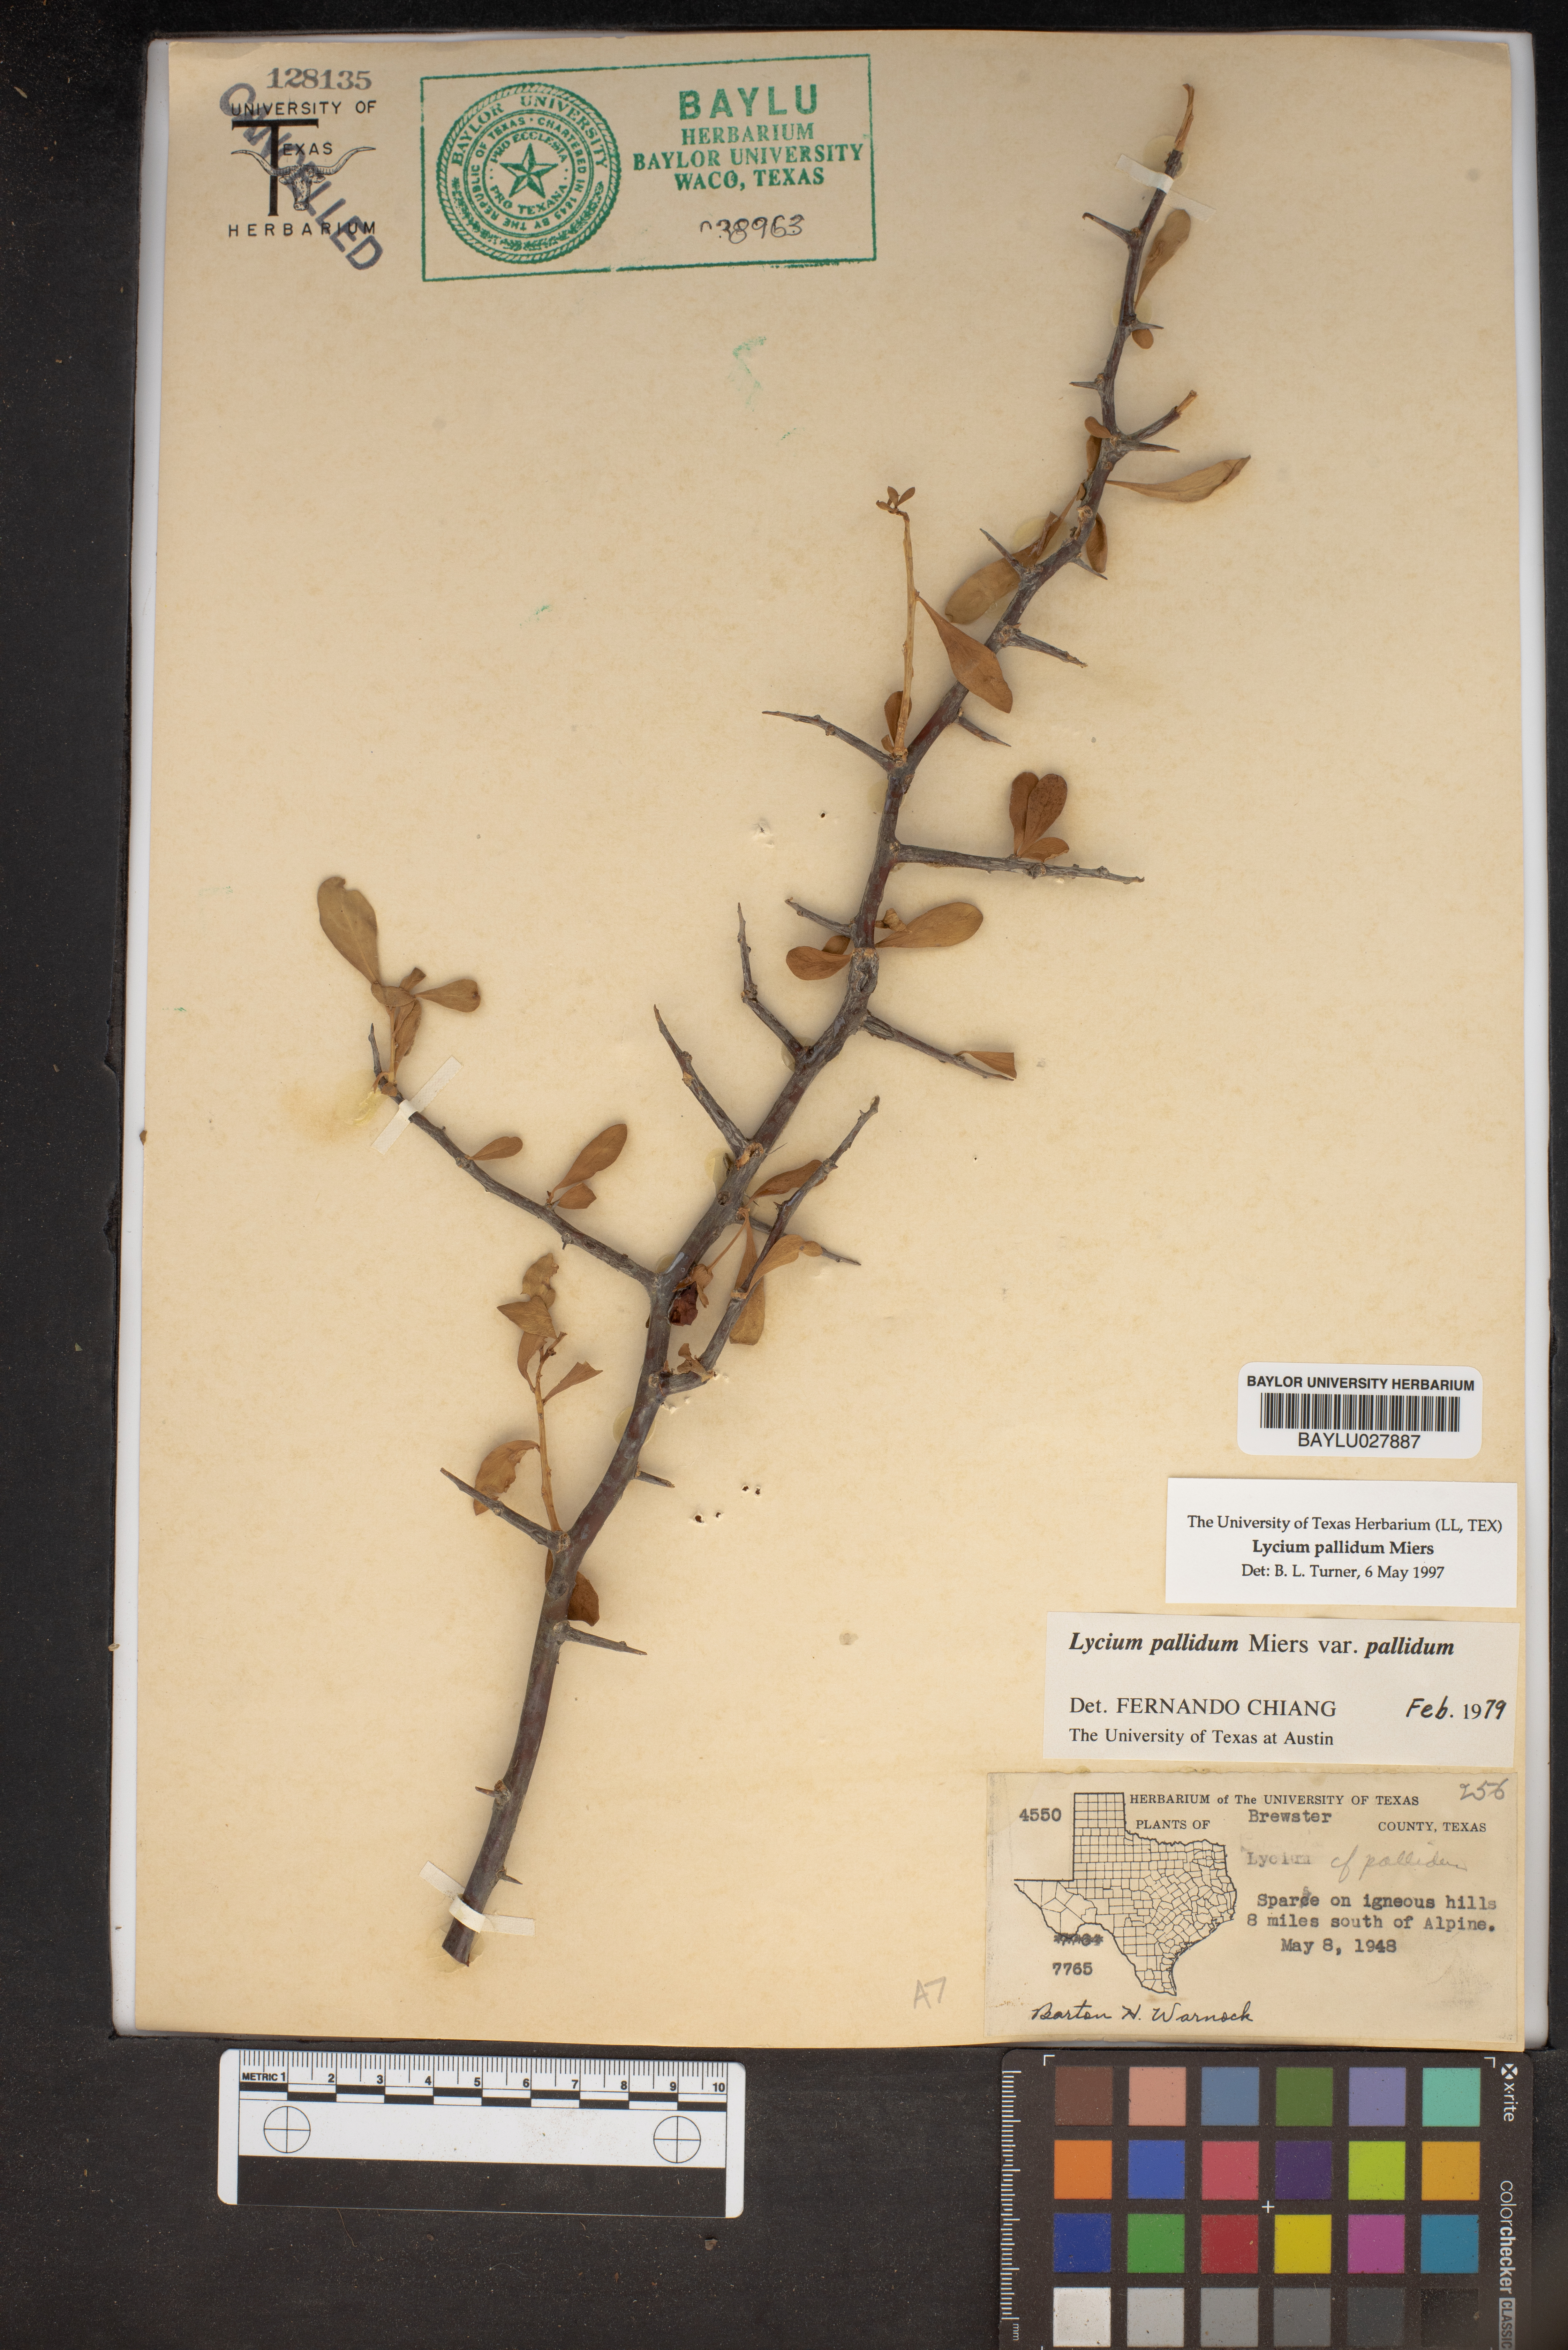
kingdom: Plantae
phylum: Tracheophyta
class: Magnoliopsida
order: Solanales
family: Solanaceae
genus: Lycium
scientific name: Lycium pallidum
